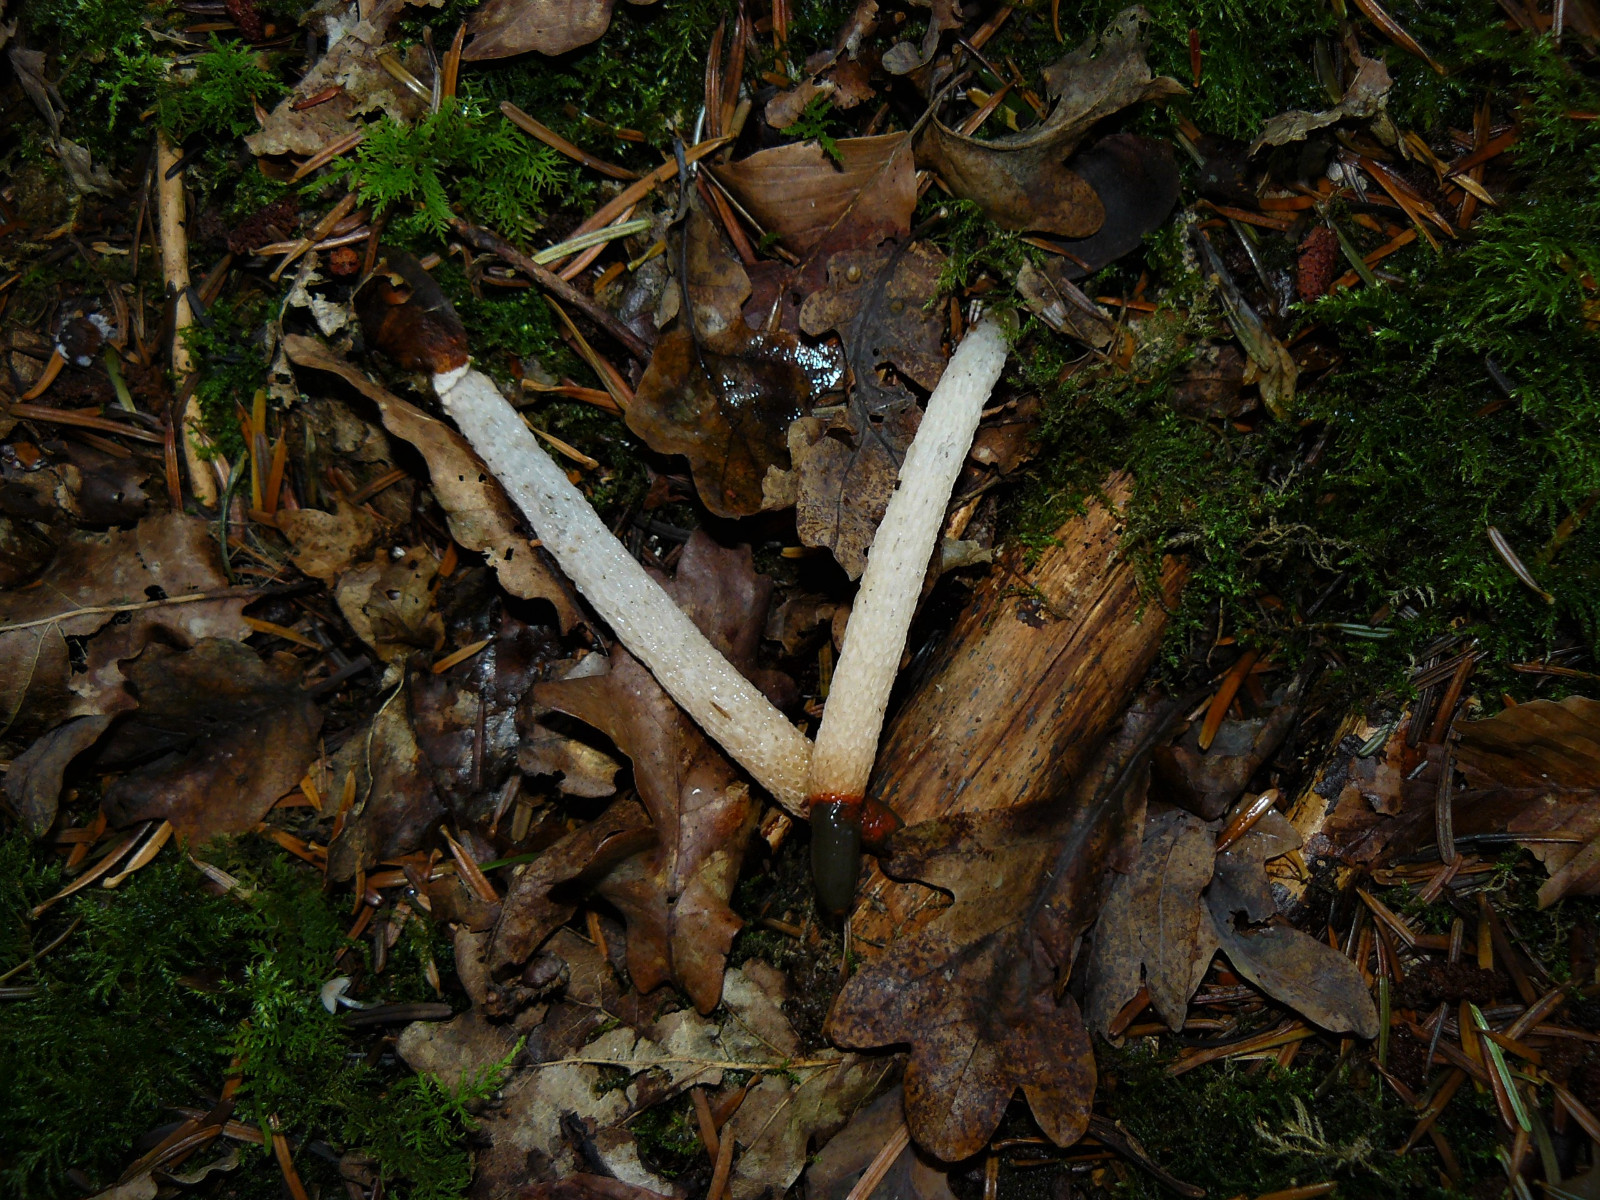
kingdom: Fungi
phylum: Basidiomycota
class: Agaricomycetes
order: Phallales
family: Phallaceae
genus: Mutinus
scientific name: Mutinus caninus
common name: hunde-stinksvamp
